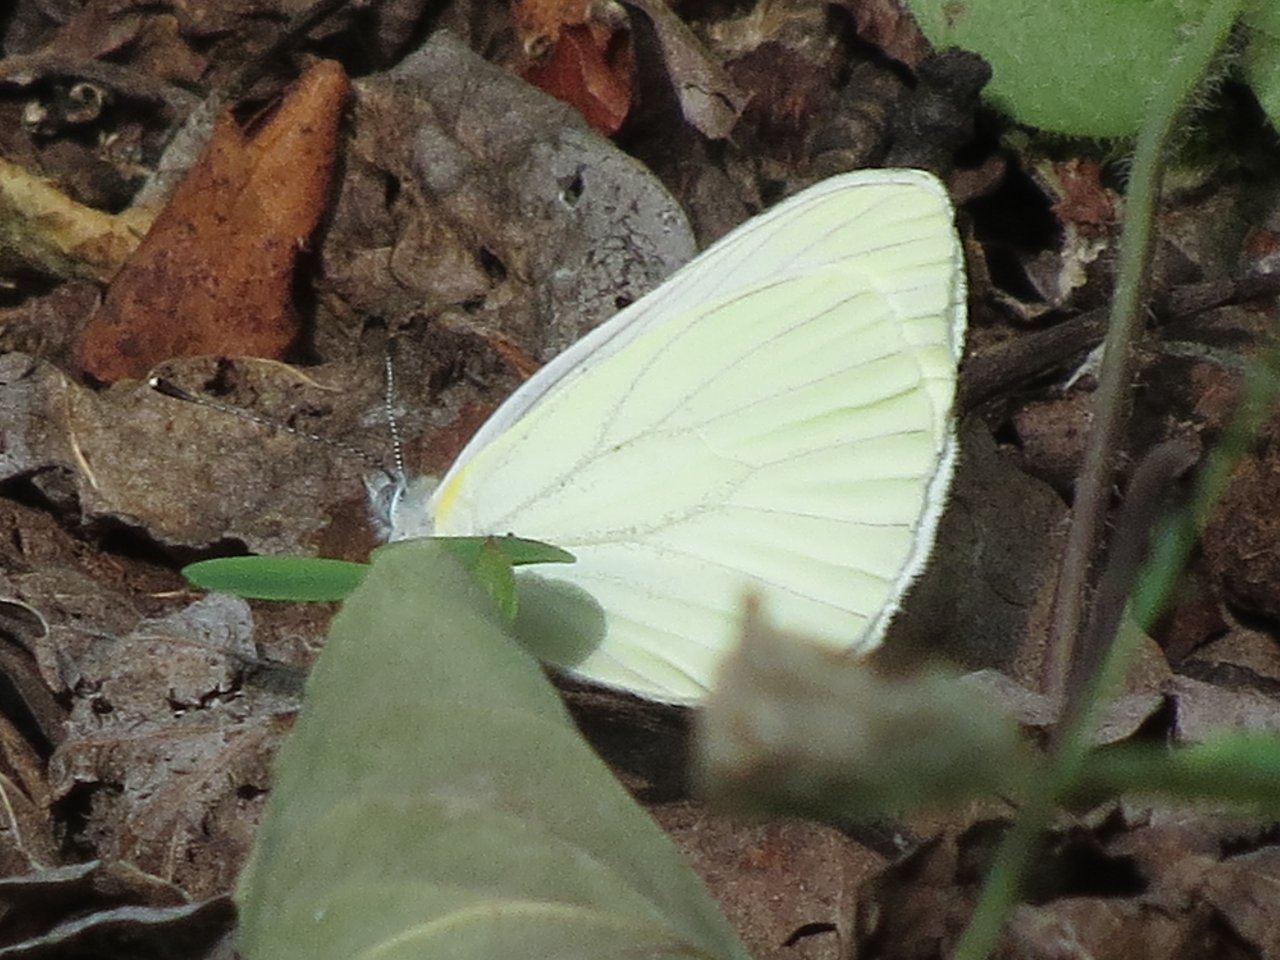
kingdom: Animalia
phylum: Arthropoda
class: Insecta
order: Lepidoptera
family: Pieridae
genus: Pieris
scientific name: Pieris oleracea
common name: Mustard White
